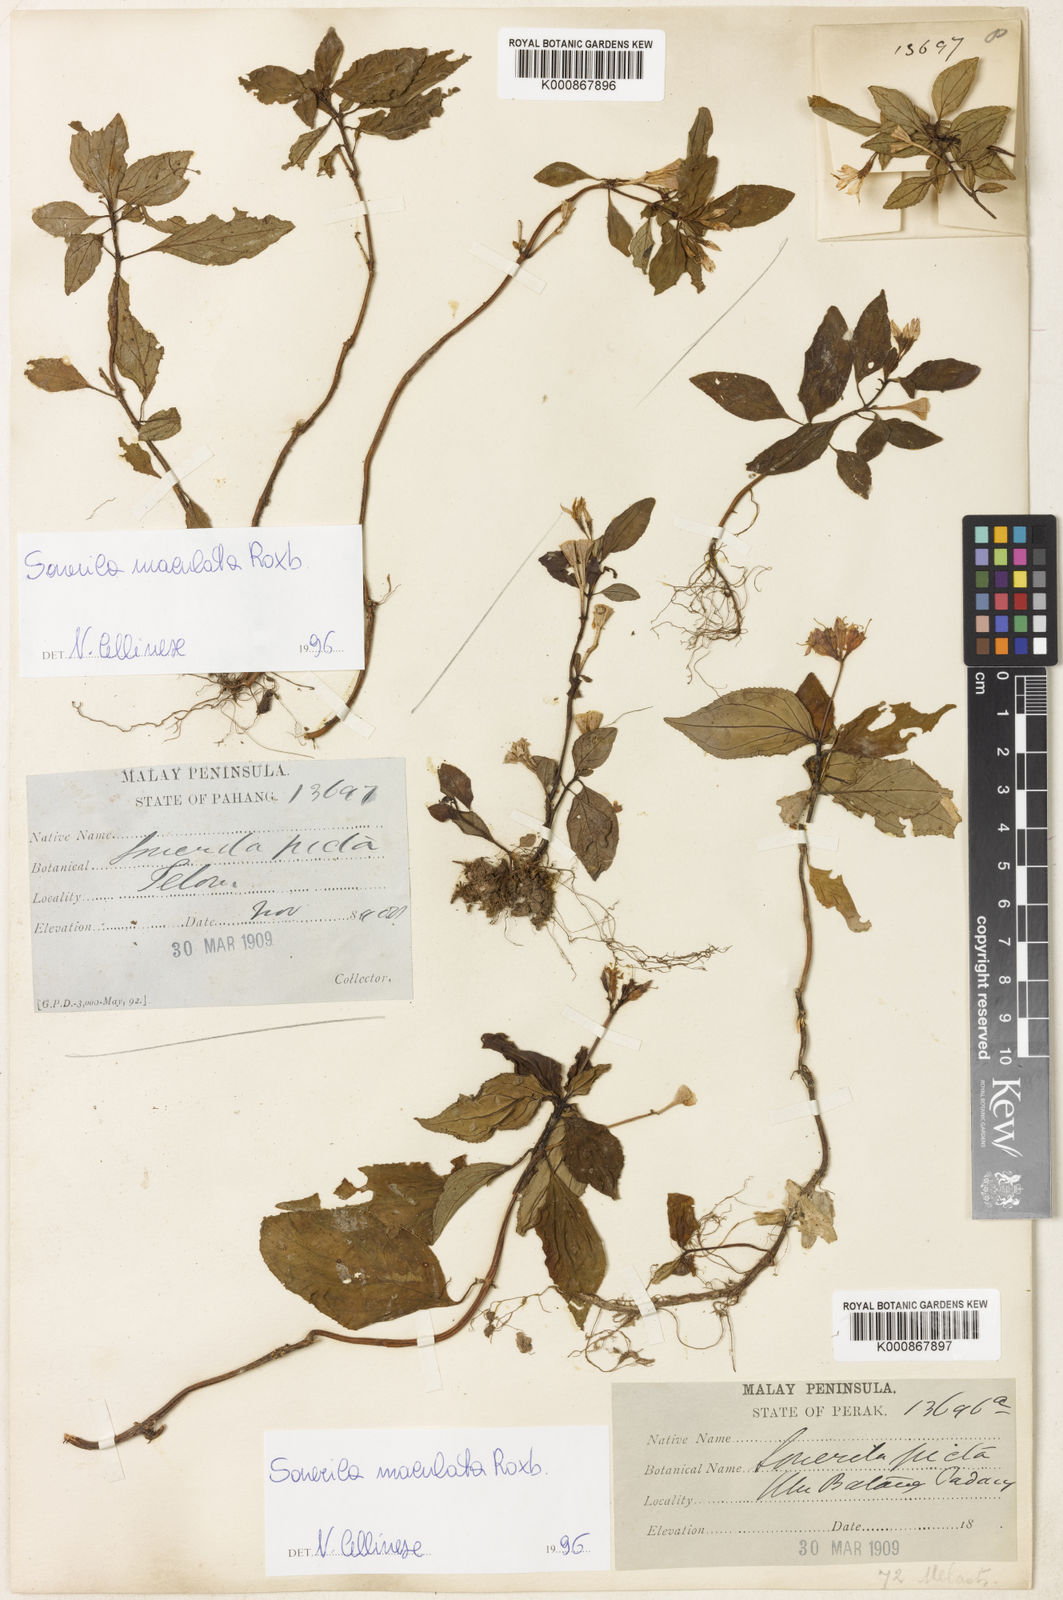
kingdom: Plantae
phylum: Tracheophyta
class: Magnoliopsida
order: Myrtales
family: Melastomataceae
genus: Sonerila
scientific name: Sonerila maculata
